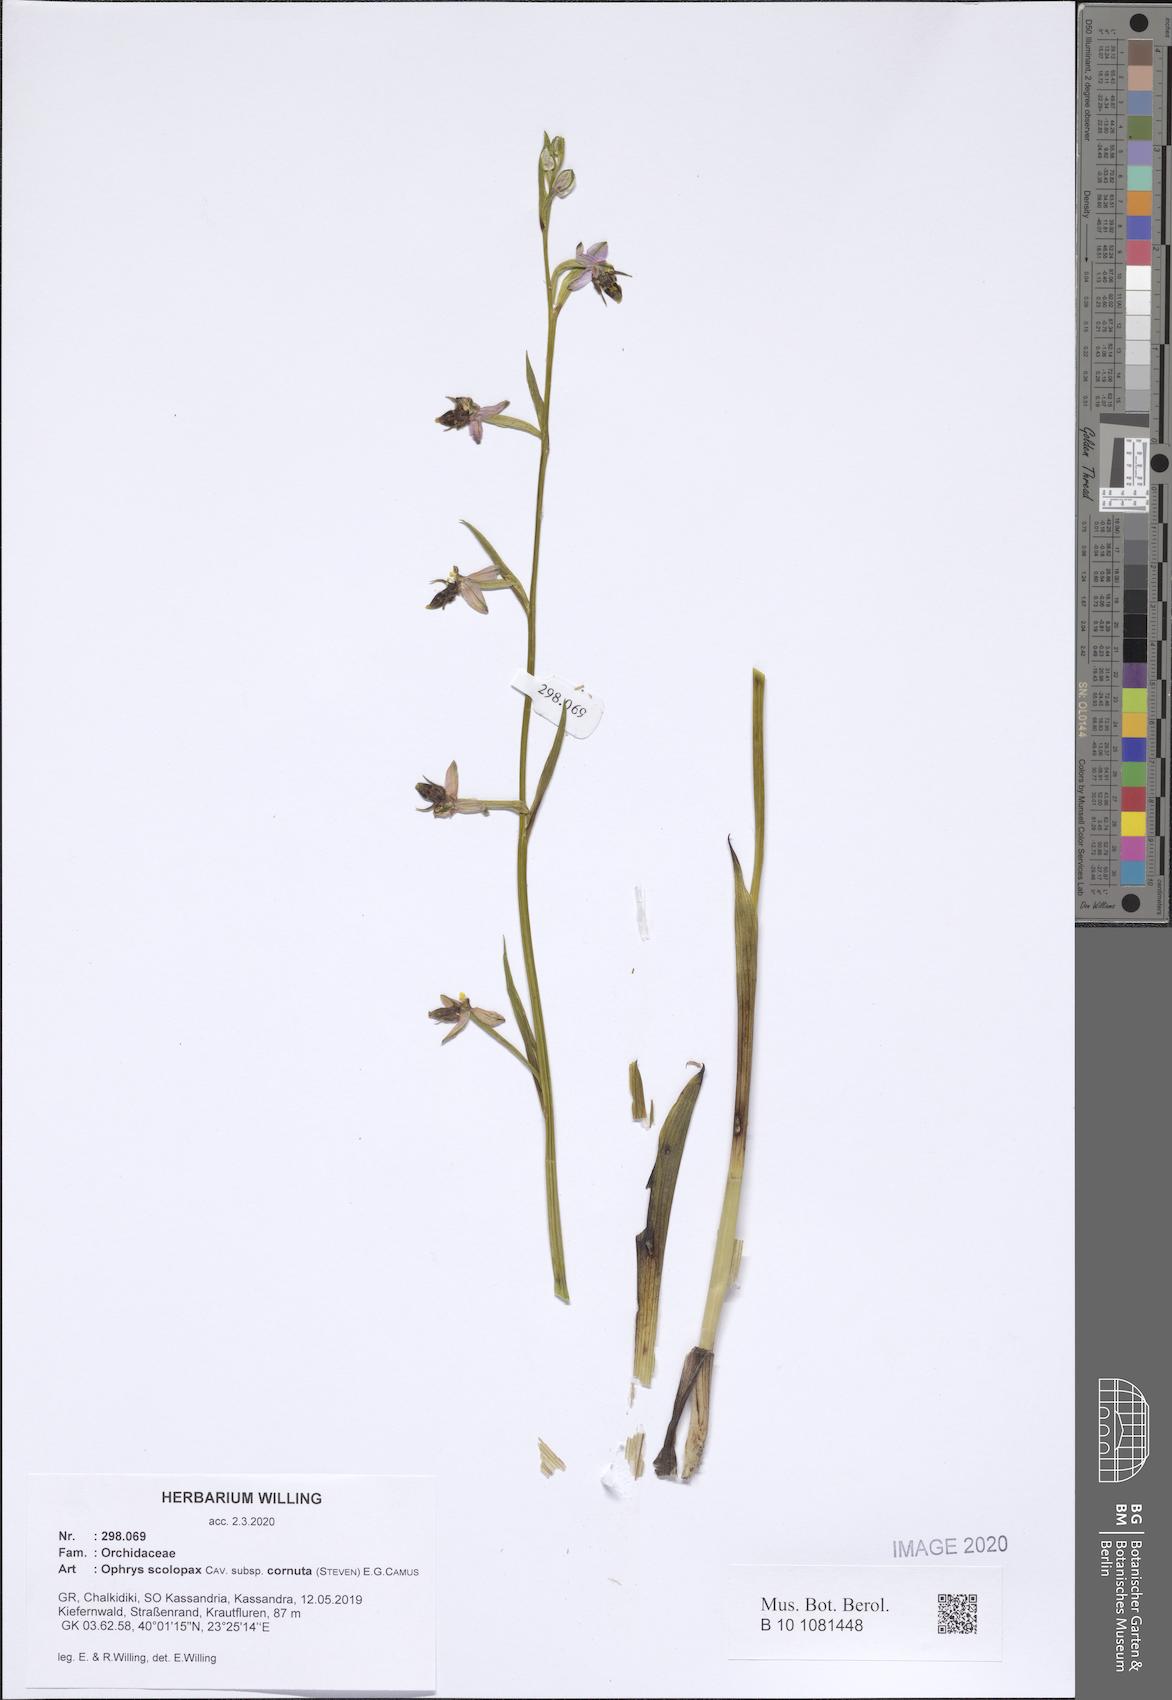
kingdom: Plantae
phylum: Tracheophyta
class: Liliopsida
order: Asparagales
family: Orchidaceae
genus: Ophrys
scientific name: Ophrys scolopax
